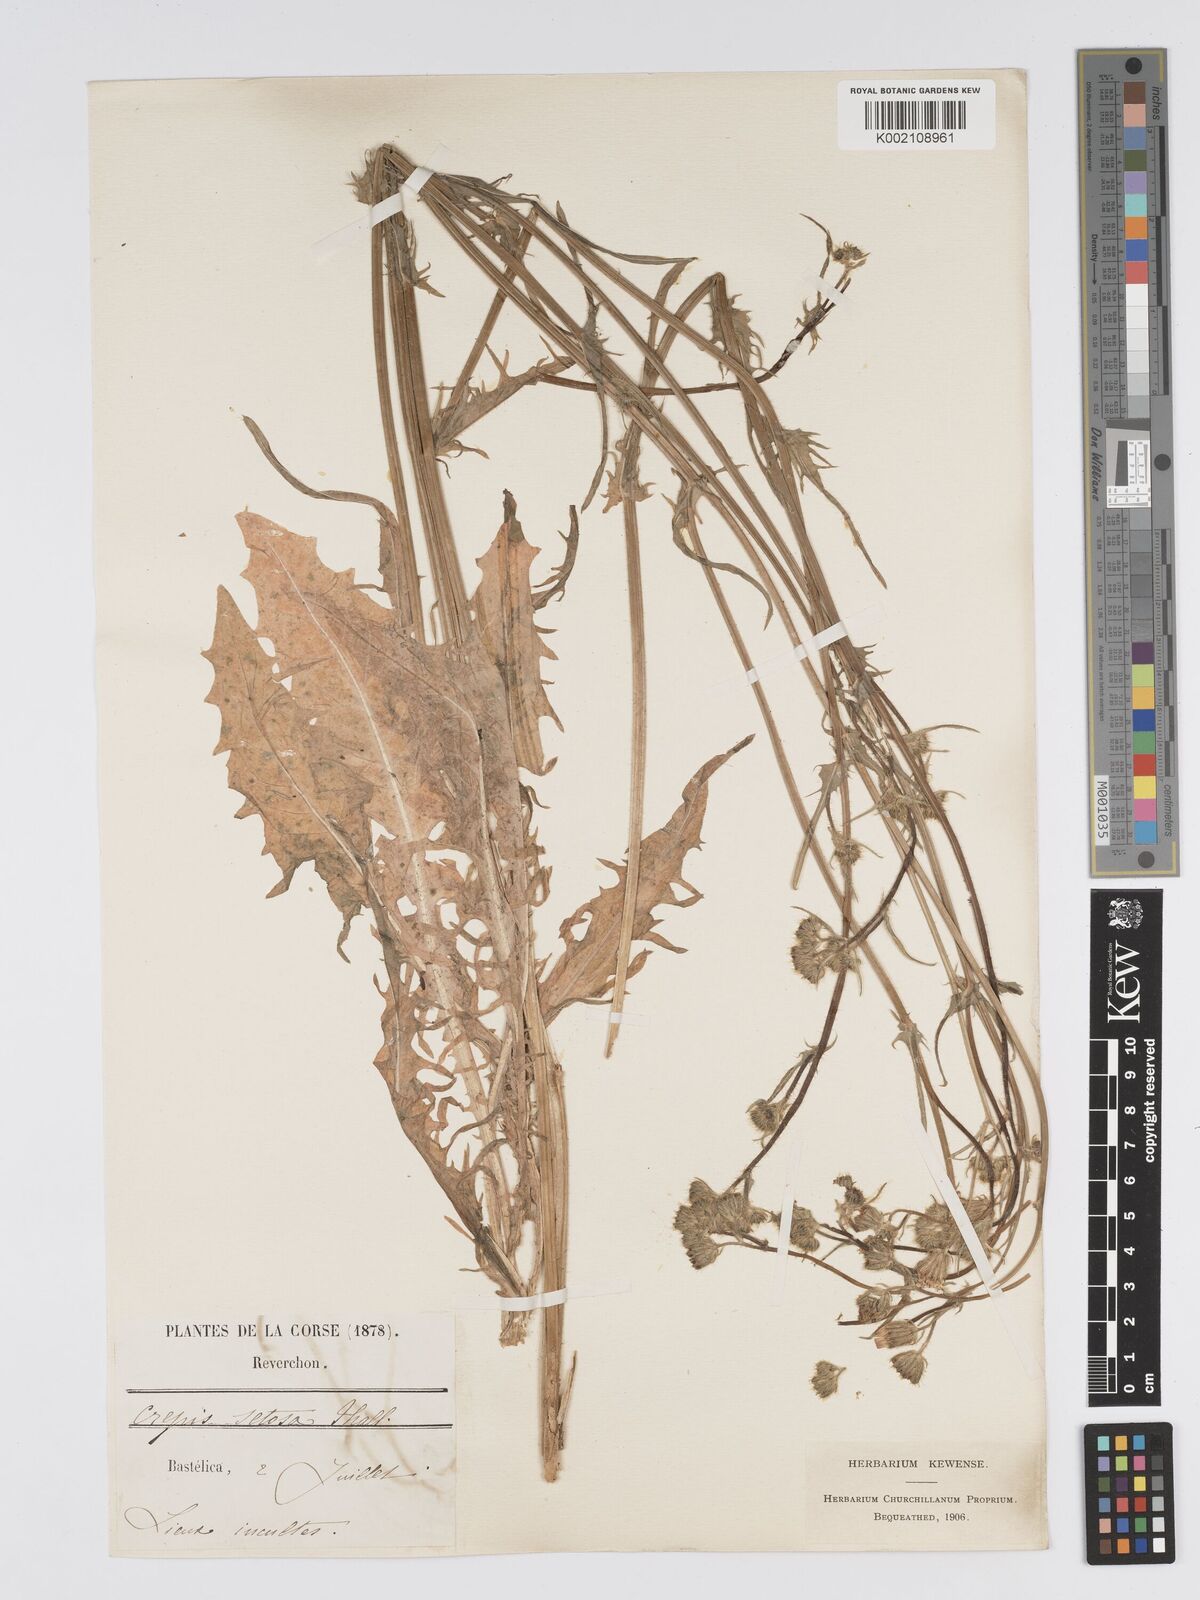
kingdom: Plantae
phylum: Tracheophyta
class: Magnoliopsida
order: Asterales
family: Asteraceae
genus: Crepis
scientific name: Crepis setosa
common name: Bristly hawk's-beard
